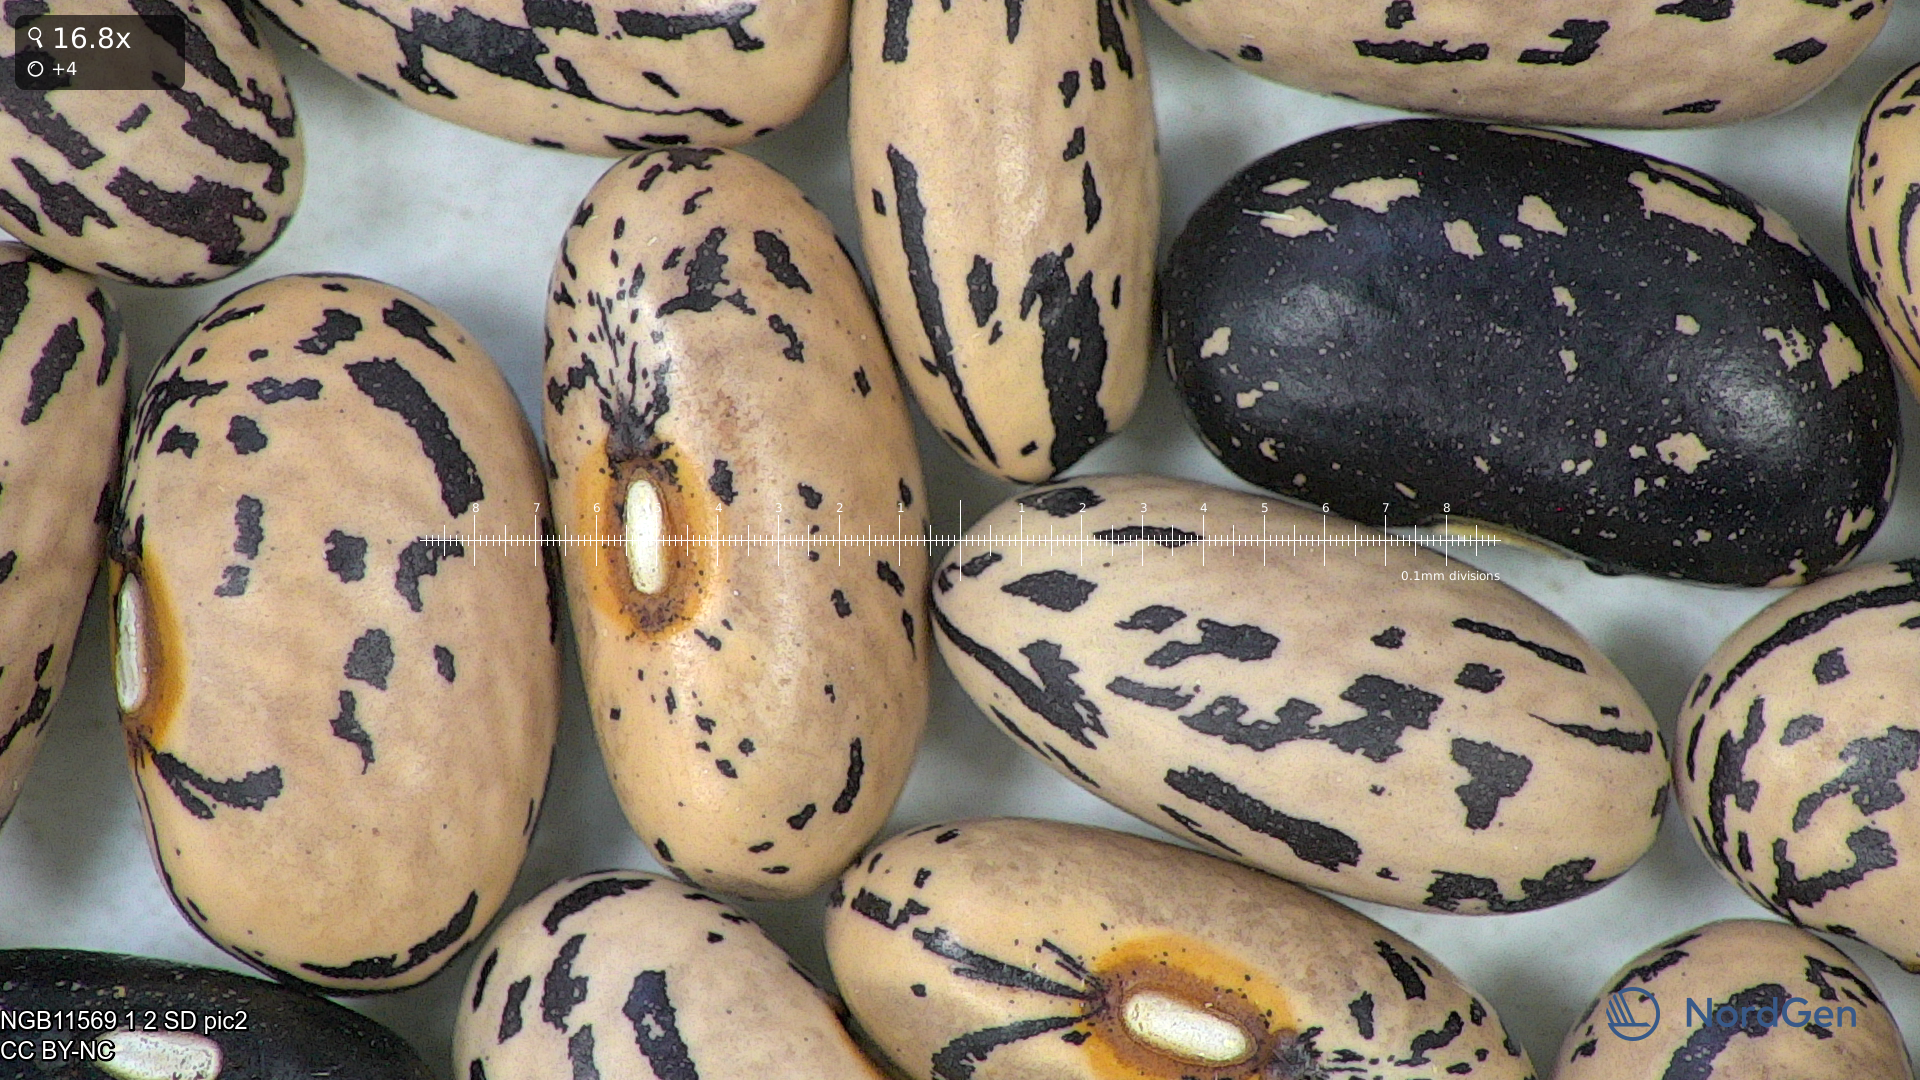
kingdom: Plantae
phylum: Tracheophyta
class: Magnoliopsida
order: Fabales
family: Fabaceae
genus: Phaseolus
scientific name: Phaseolus vulgaris
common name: Bean
